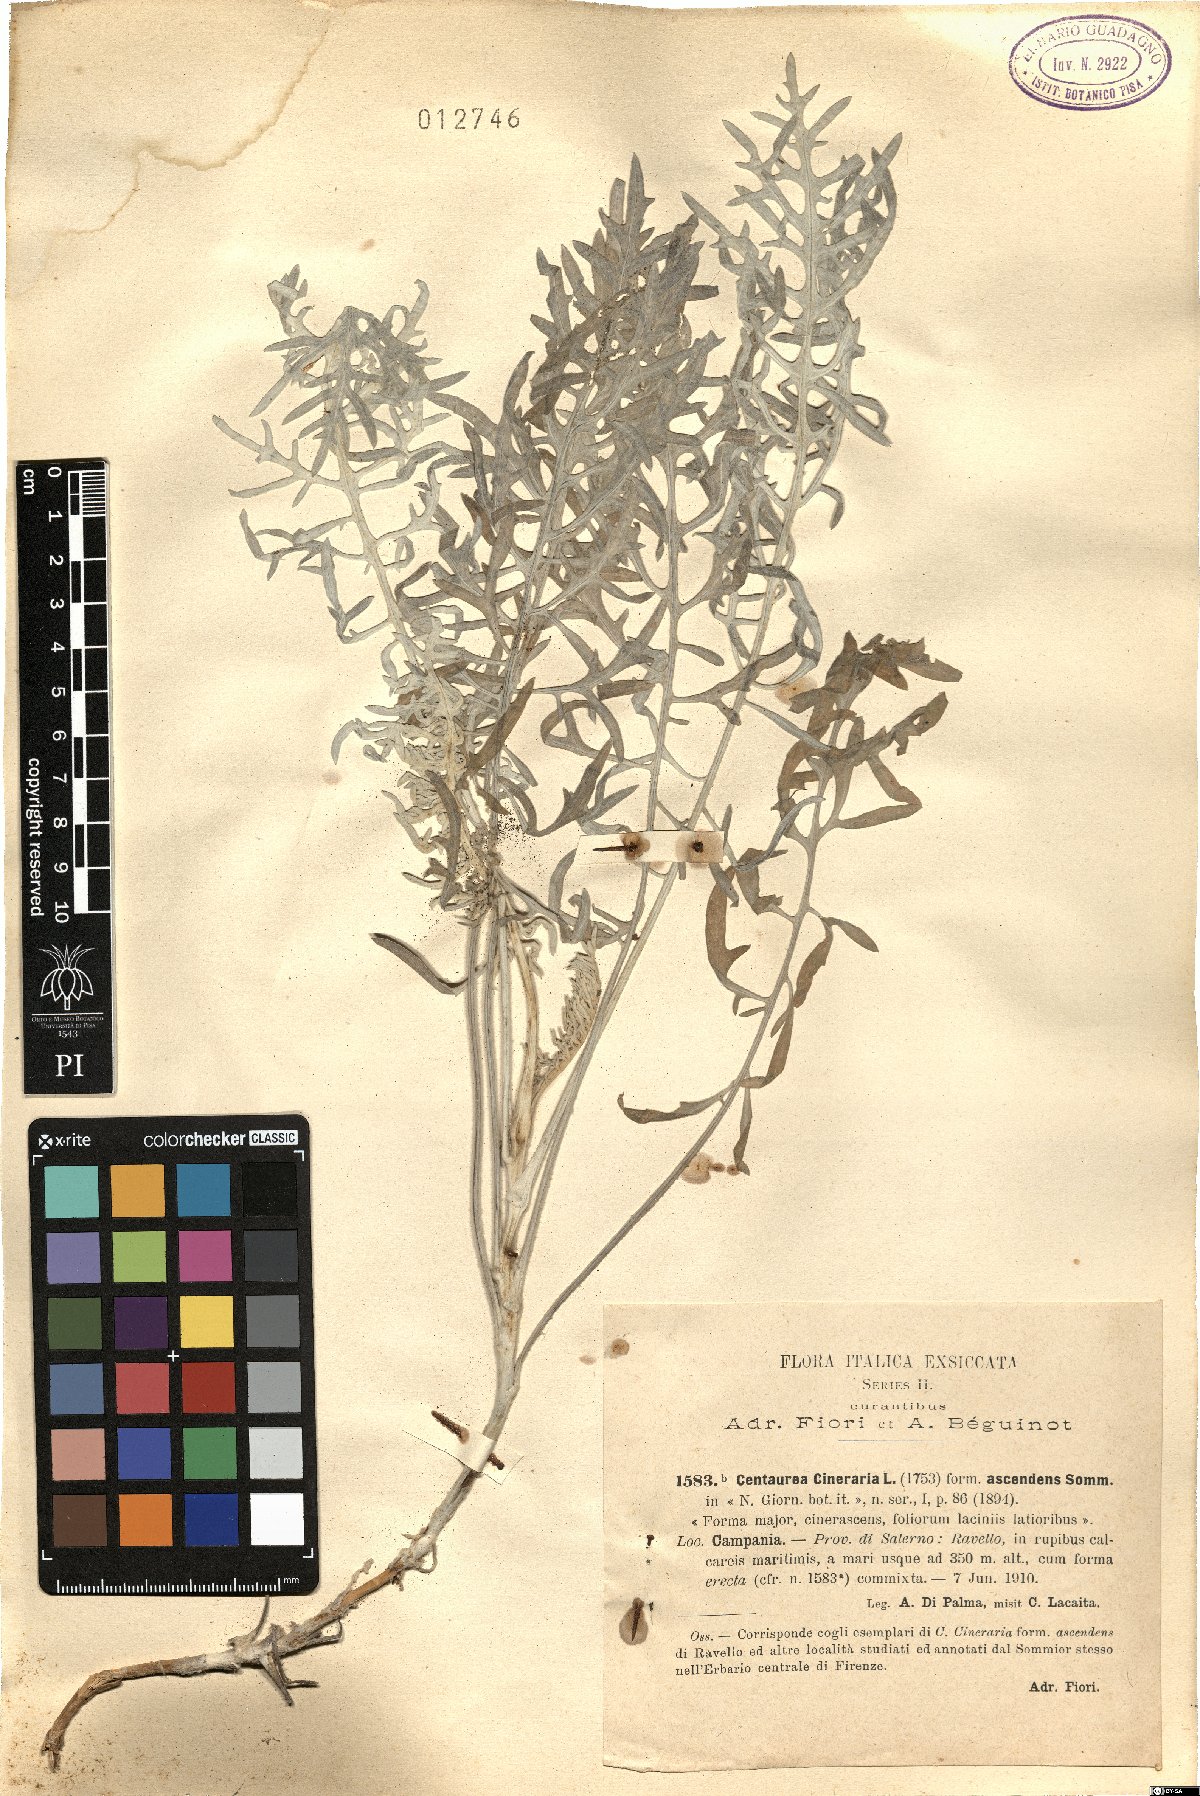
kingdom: Plantae
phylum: Tracheophyta
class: Magnoliopsida
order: Asterales
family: Asteraceae
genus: Centaurea
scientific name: Centaurea cineraria
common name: Dusty miller
